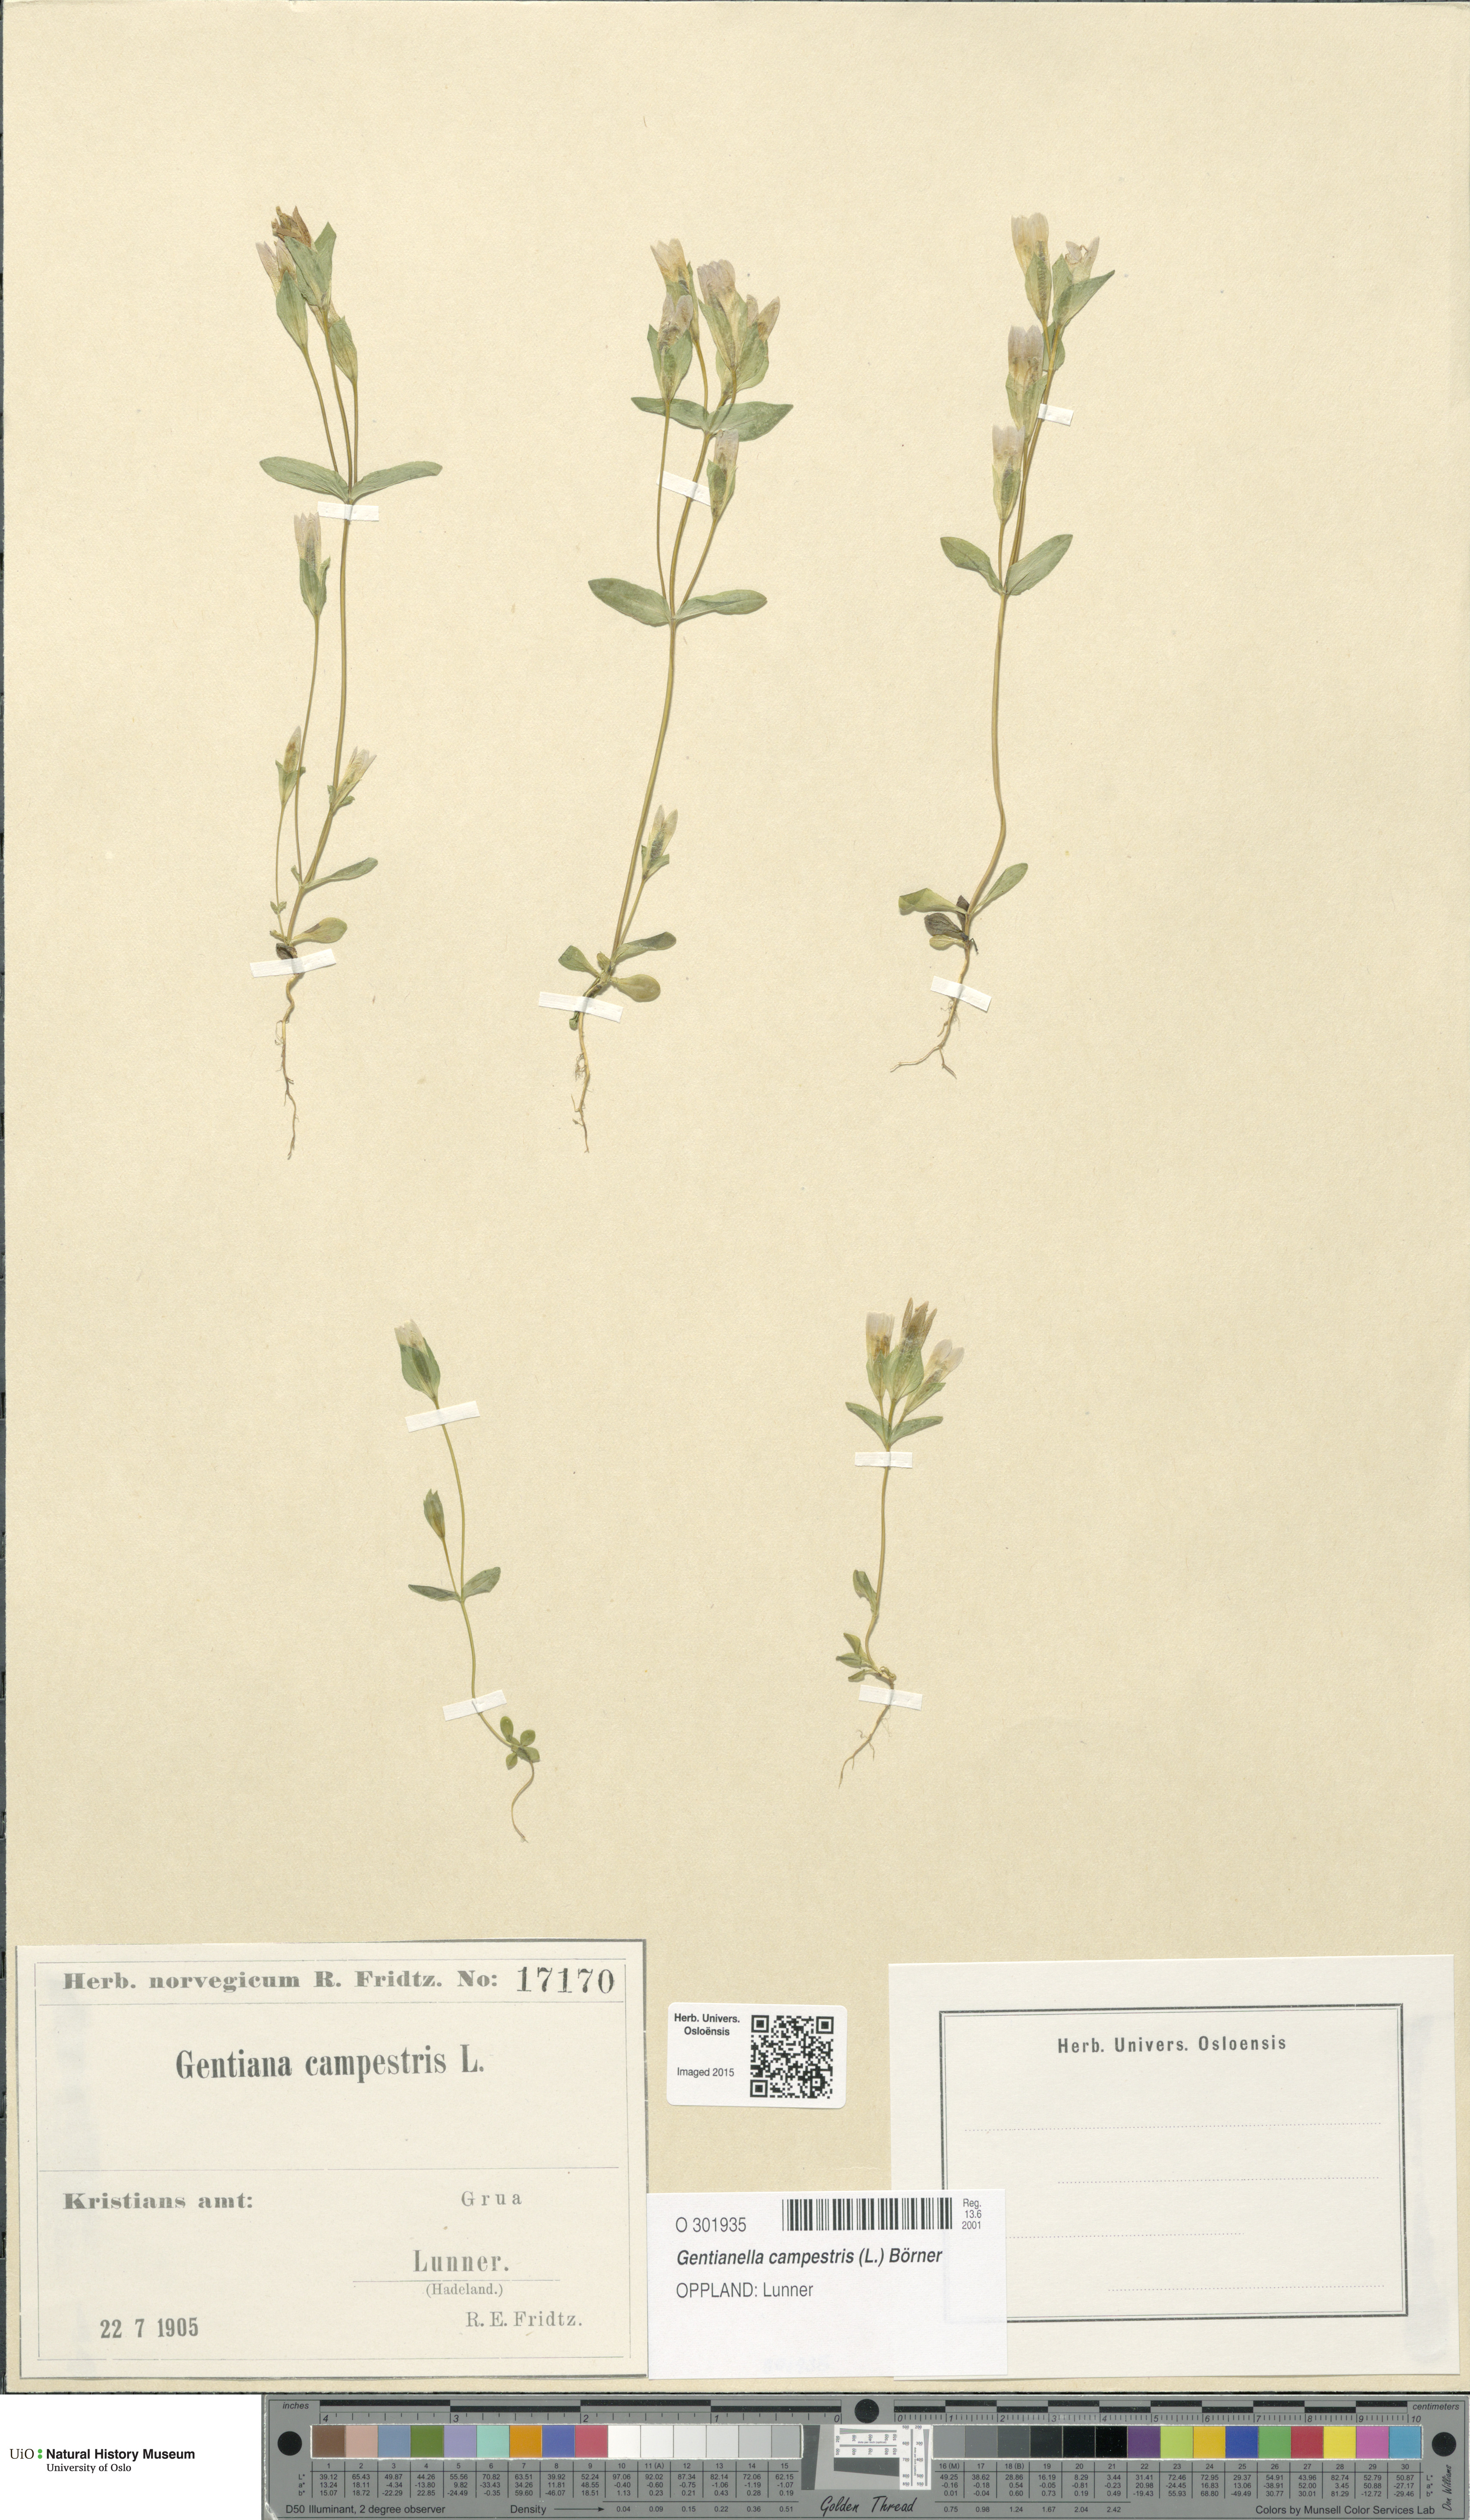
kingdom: Plantae
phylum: Tracheophyta
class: Magnoliopsida
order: Gentianales
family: Gentianaceae
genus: Gentianella
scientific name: Gentianella campestris
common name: Field gentian
